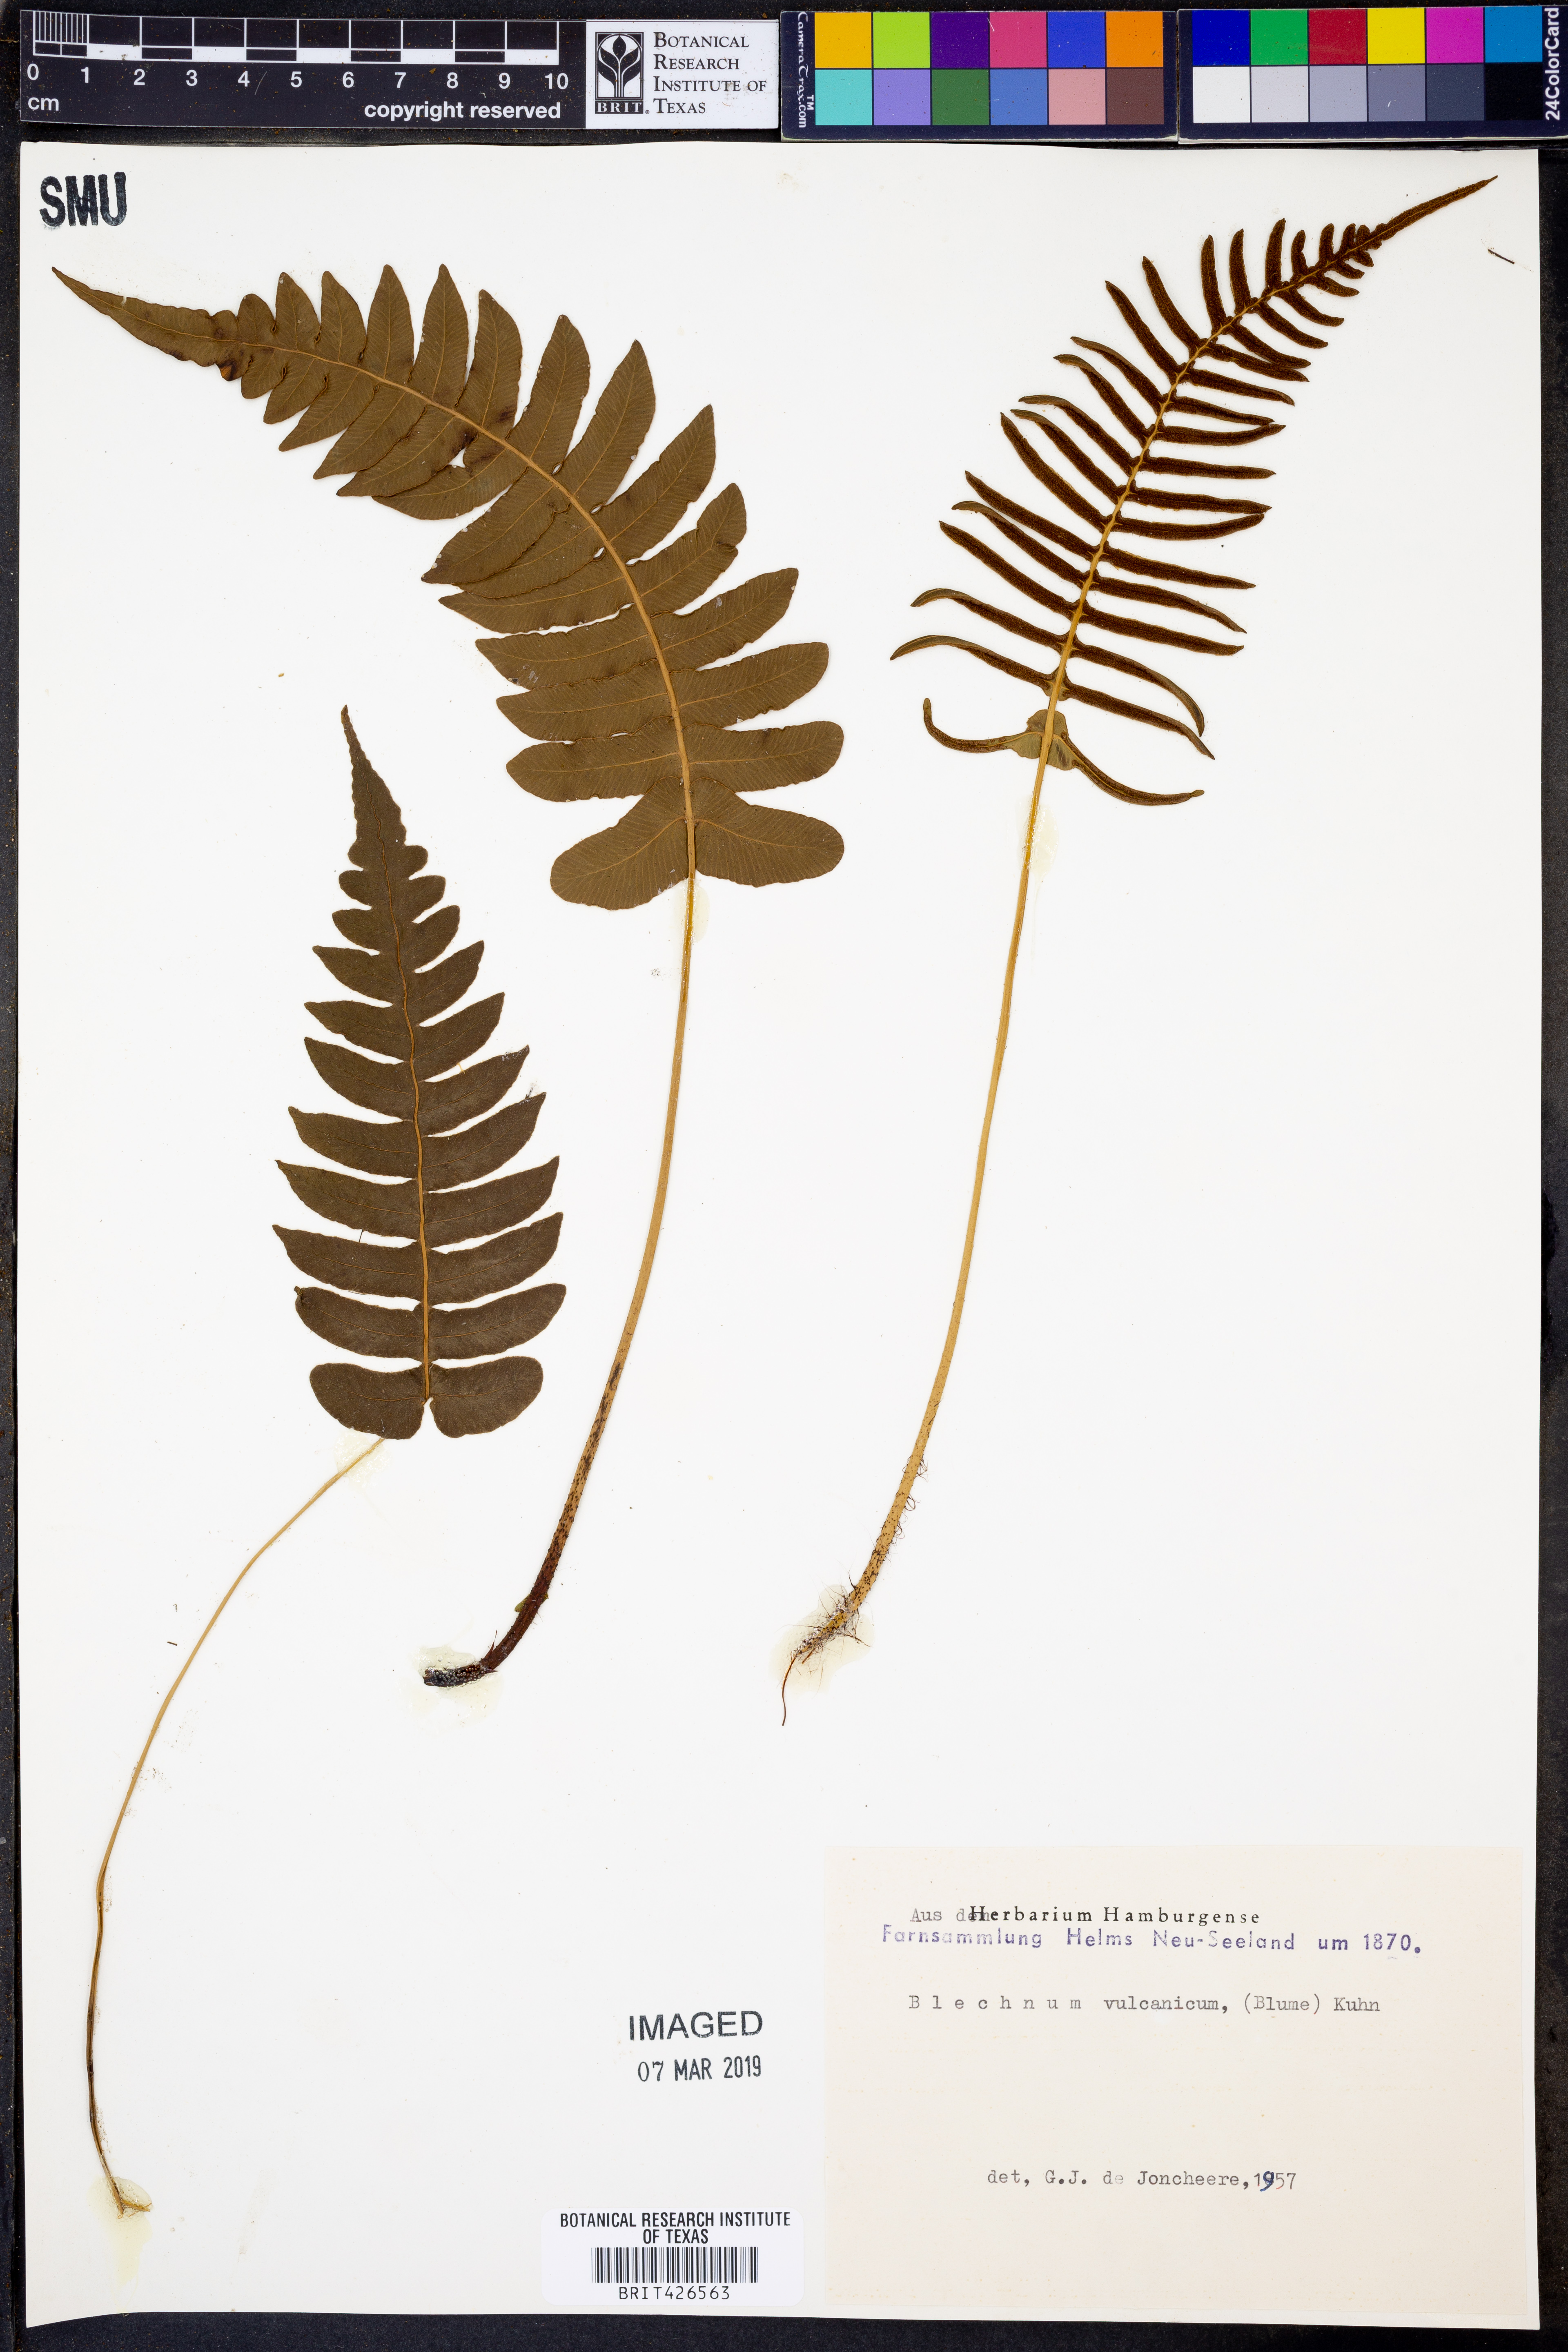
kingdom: Plantae
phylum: Tracheophyta
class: Polypodiopsida
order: Polypodiales
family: Blechnaceae
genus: Cranfillia
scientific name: Cranfillia vulcanica
